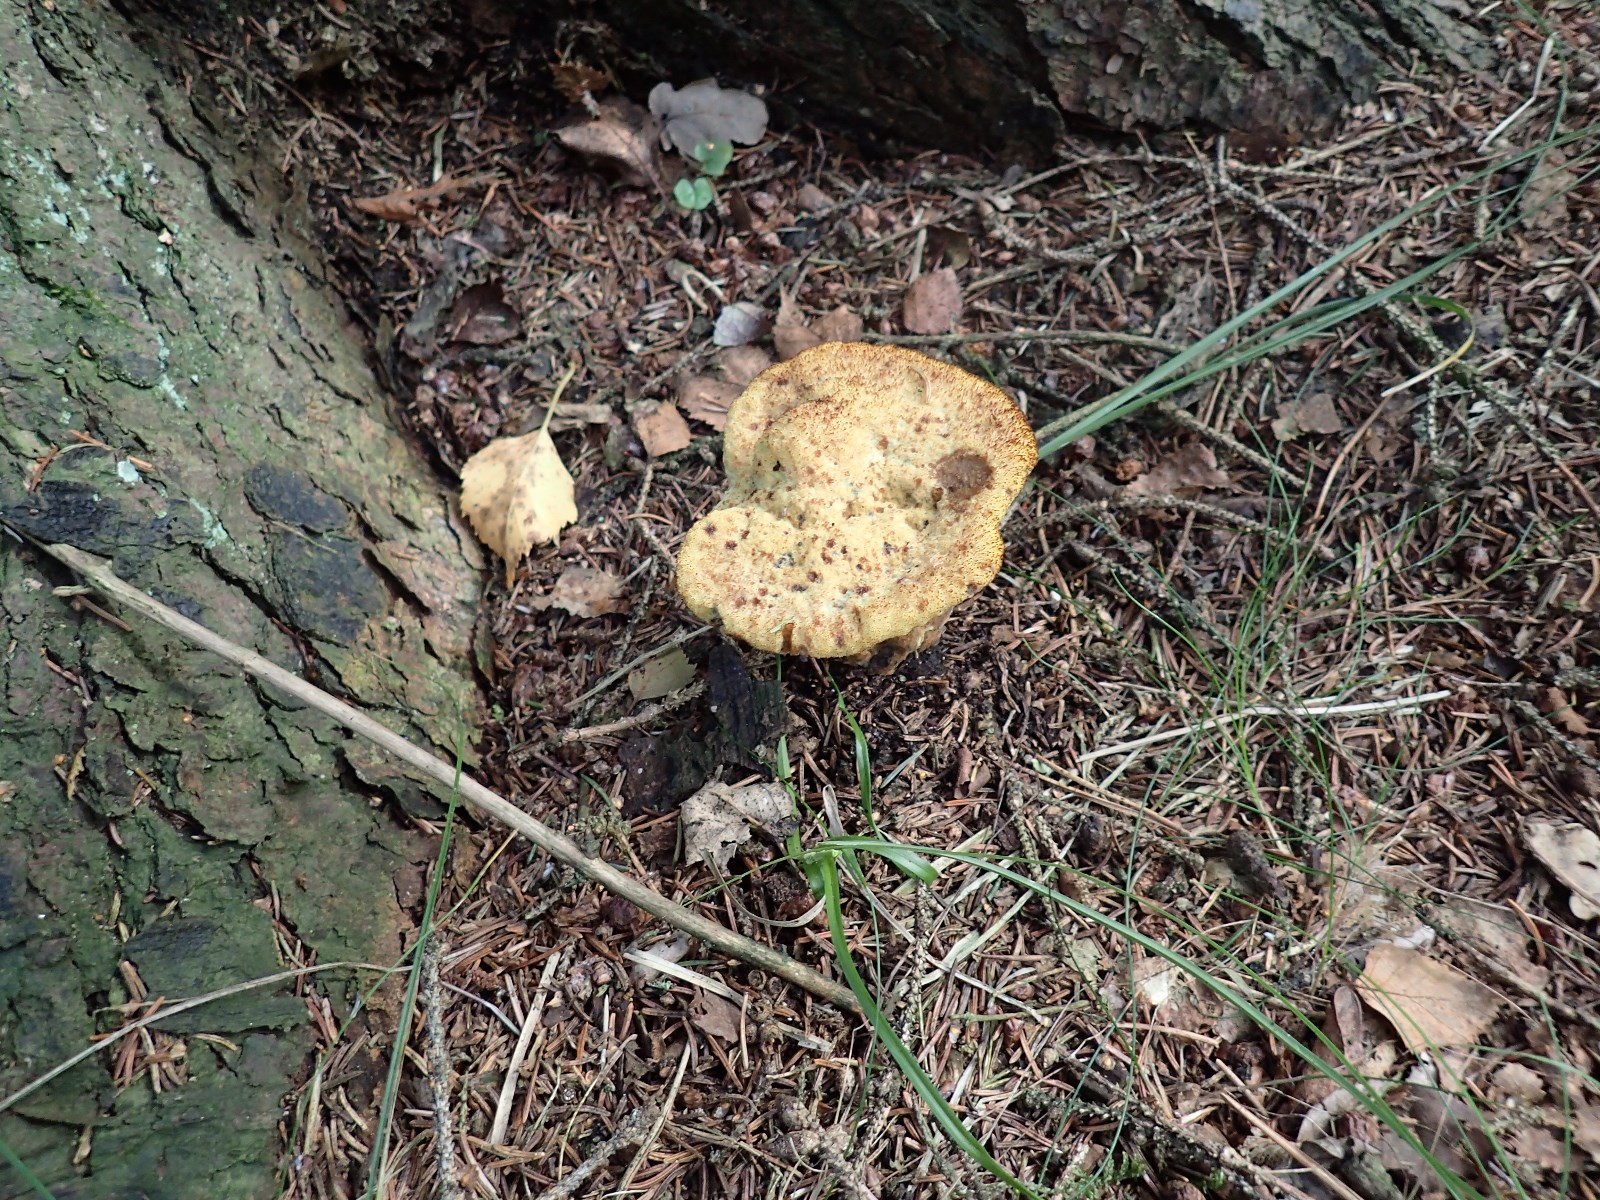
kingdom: Fungi
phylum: Basidiomycota
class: Agaricomycetes
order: Polyporales
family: Laetiporaceae
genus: Phaeolus
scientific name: Phaeolus schweinitzii
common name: brunporesvamp
